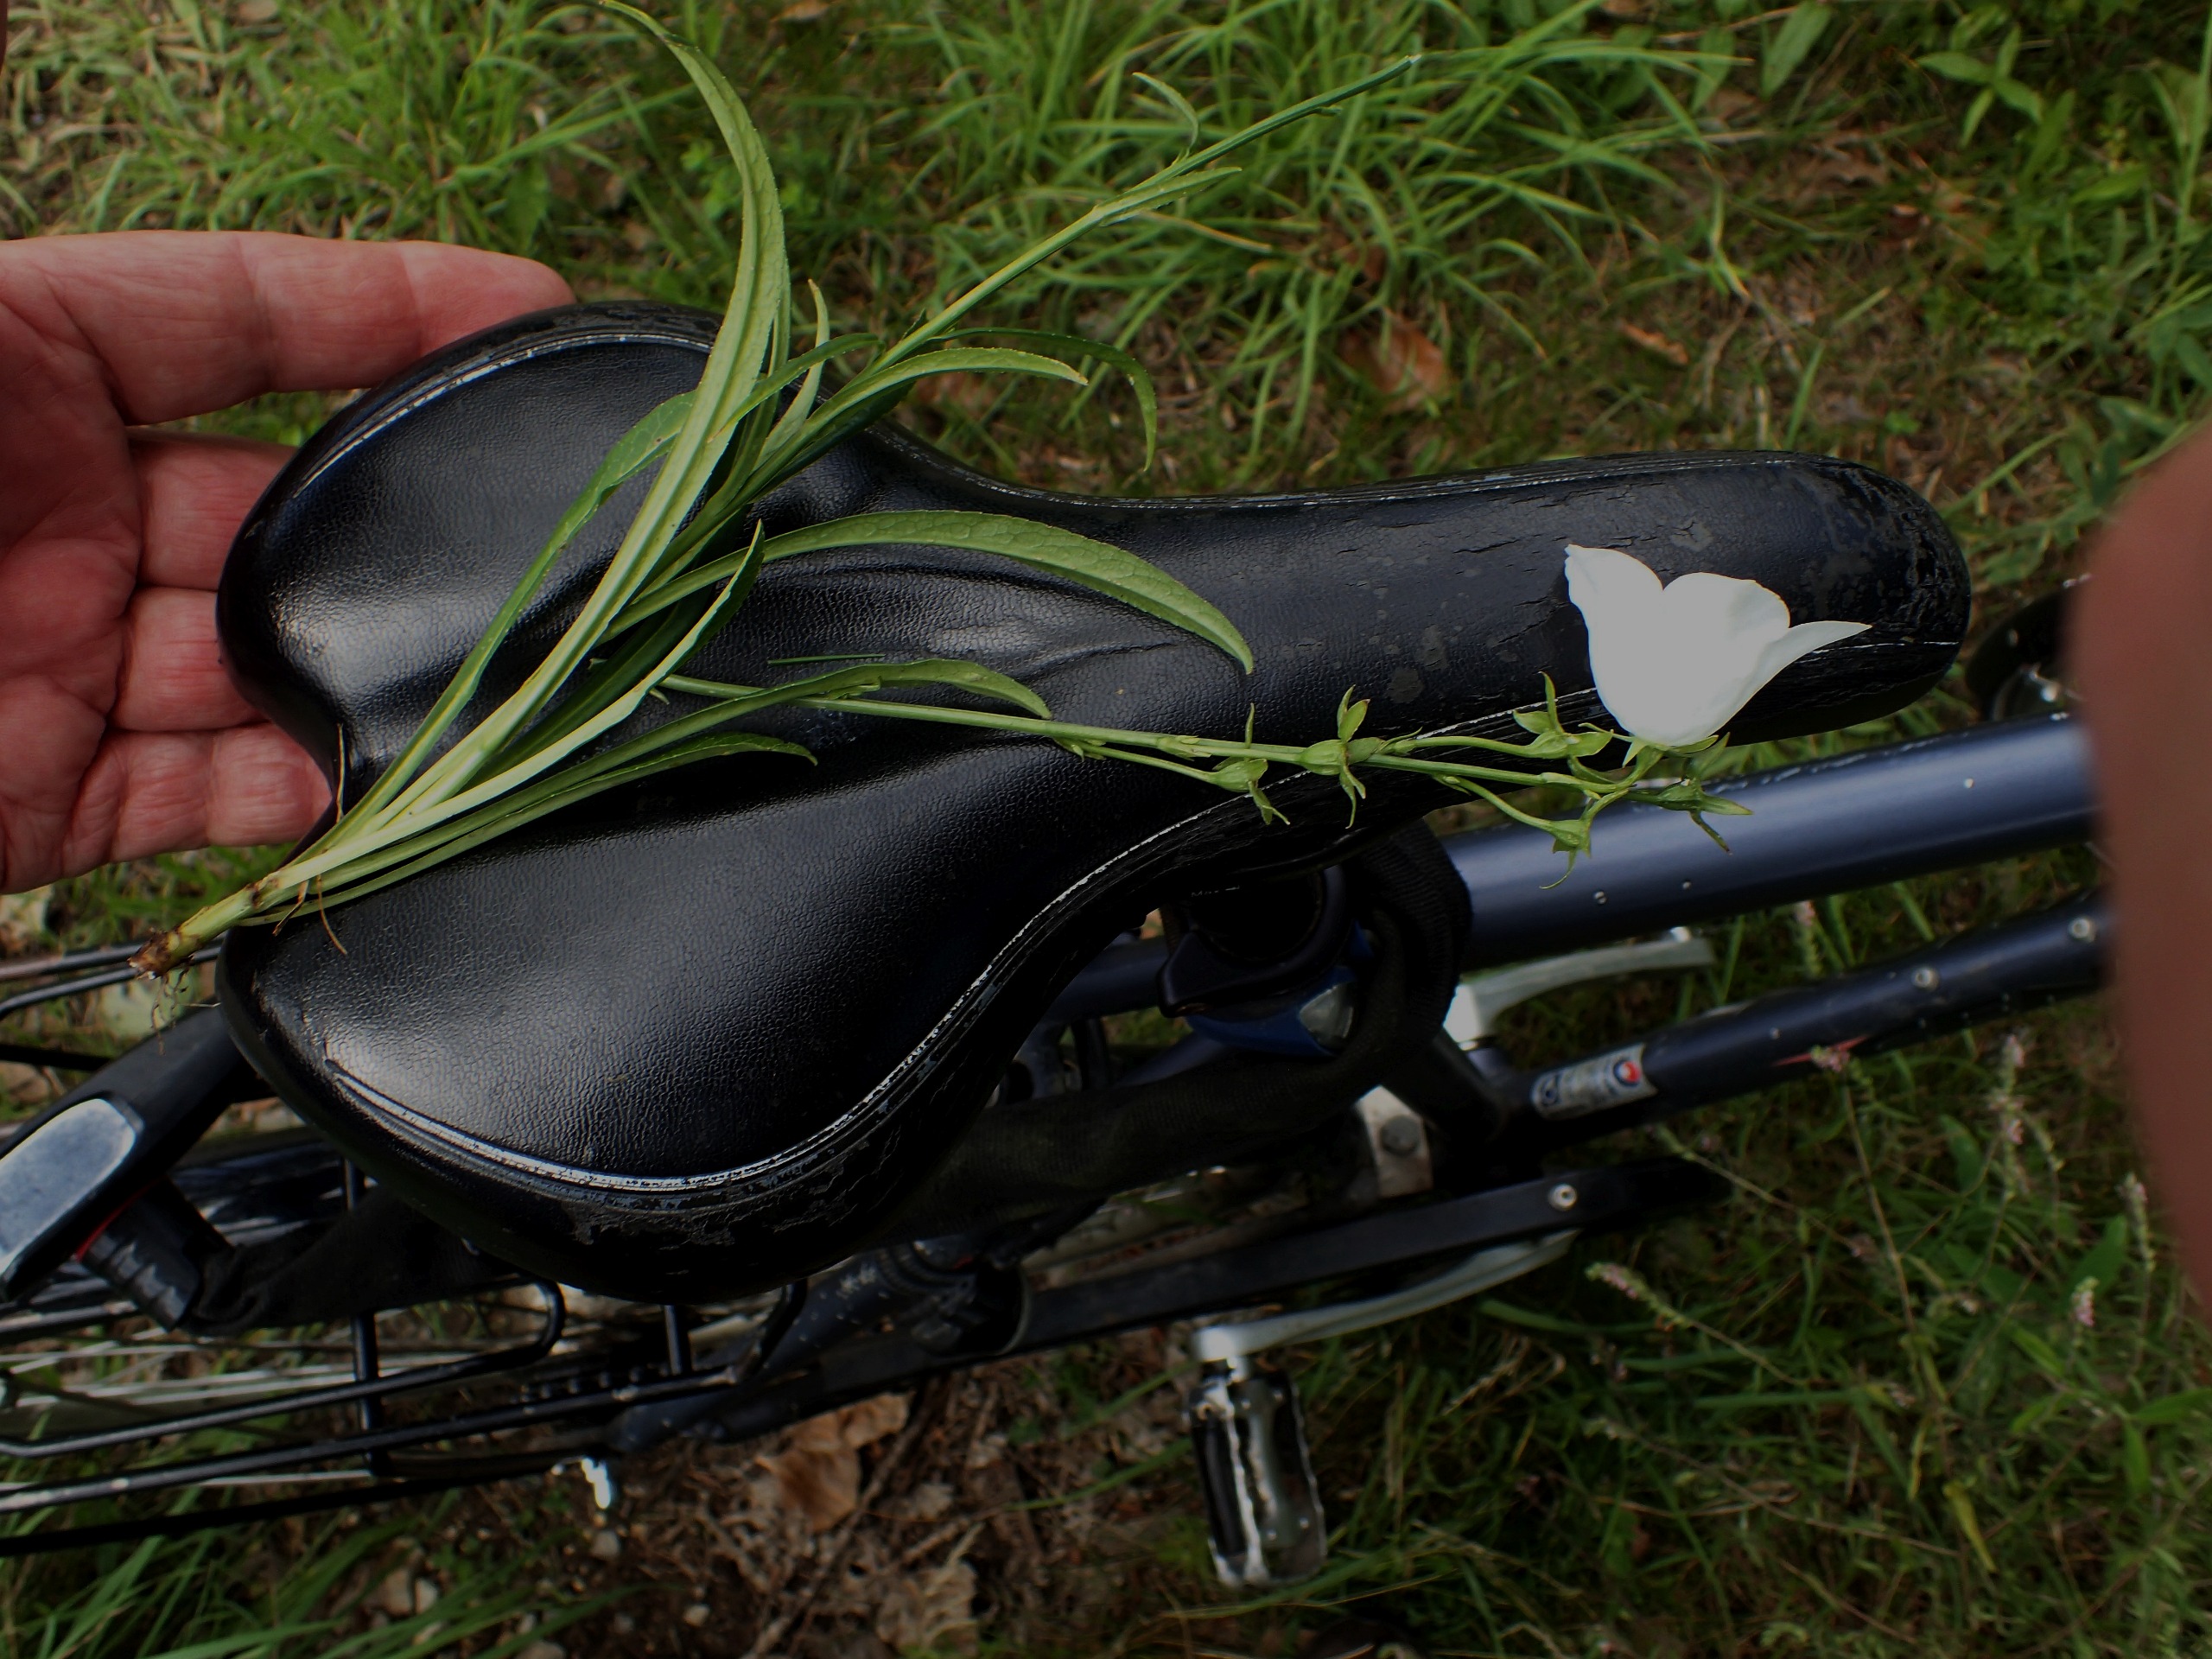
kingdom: Plantae
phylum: Tracheophyta
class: Magnoliopsida
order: Asterales
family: Campanulaceae
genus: Campanula
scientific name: Campanula persicifolia
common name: Smalbladet klokke
